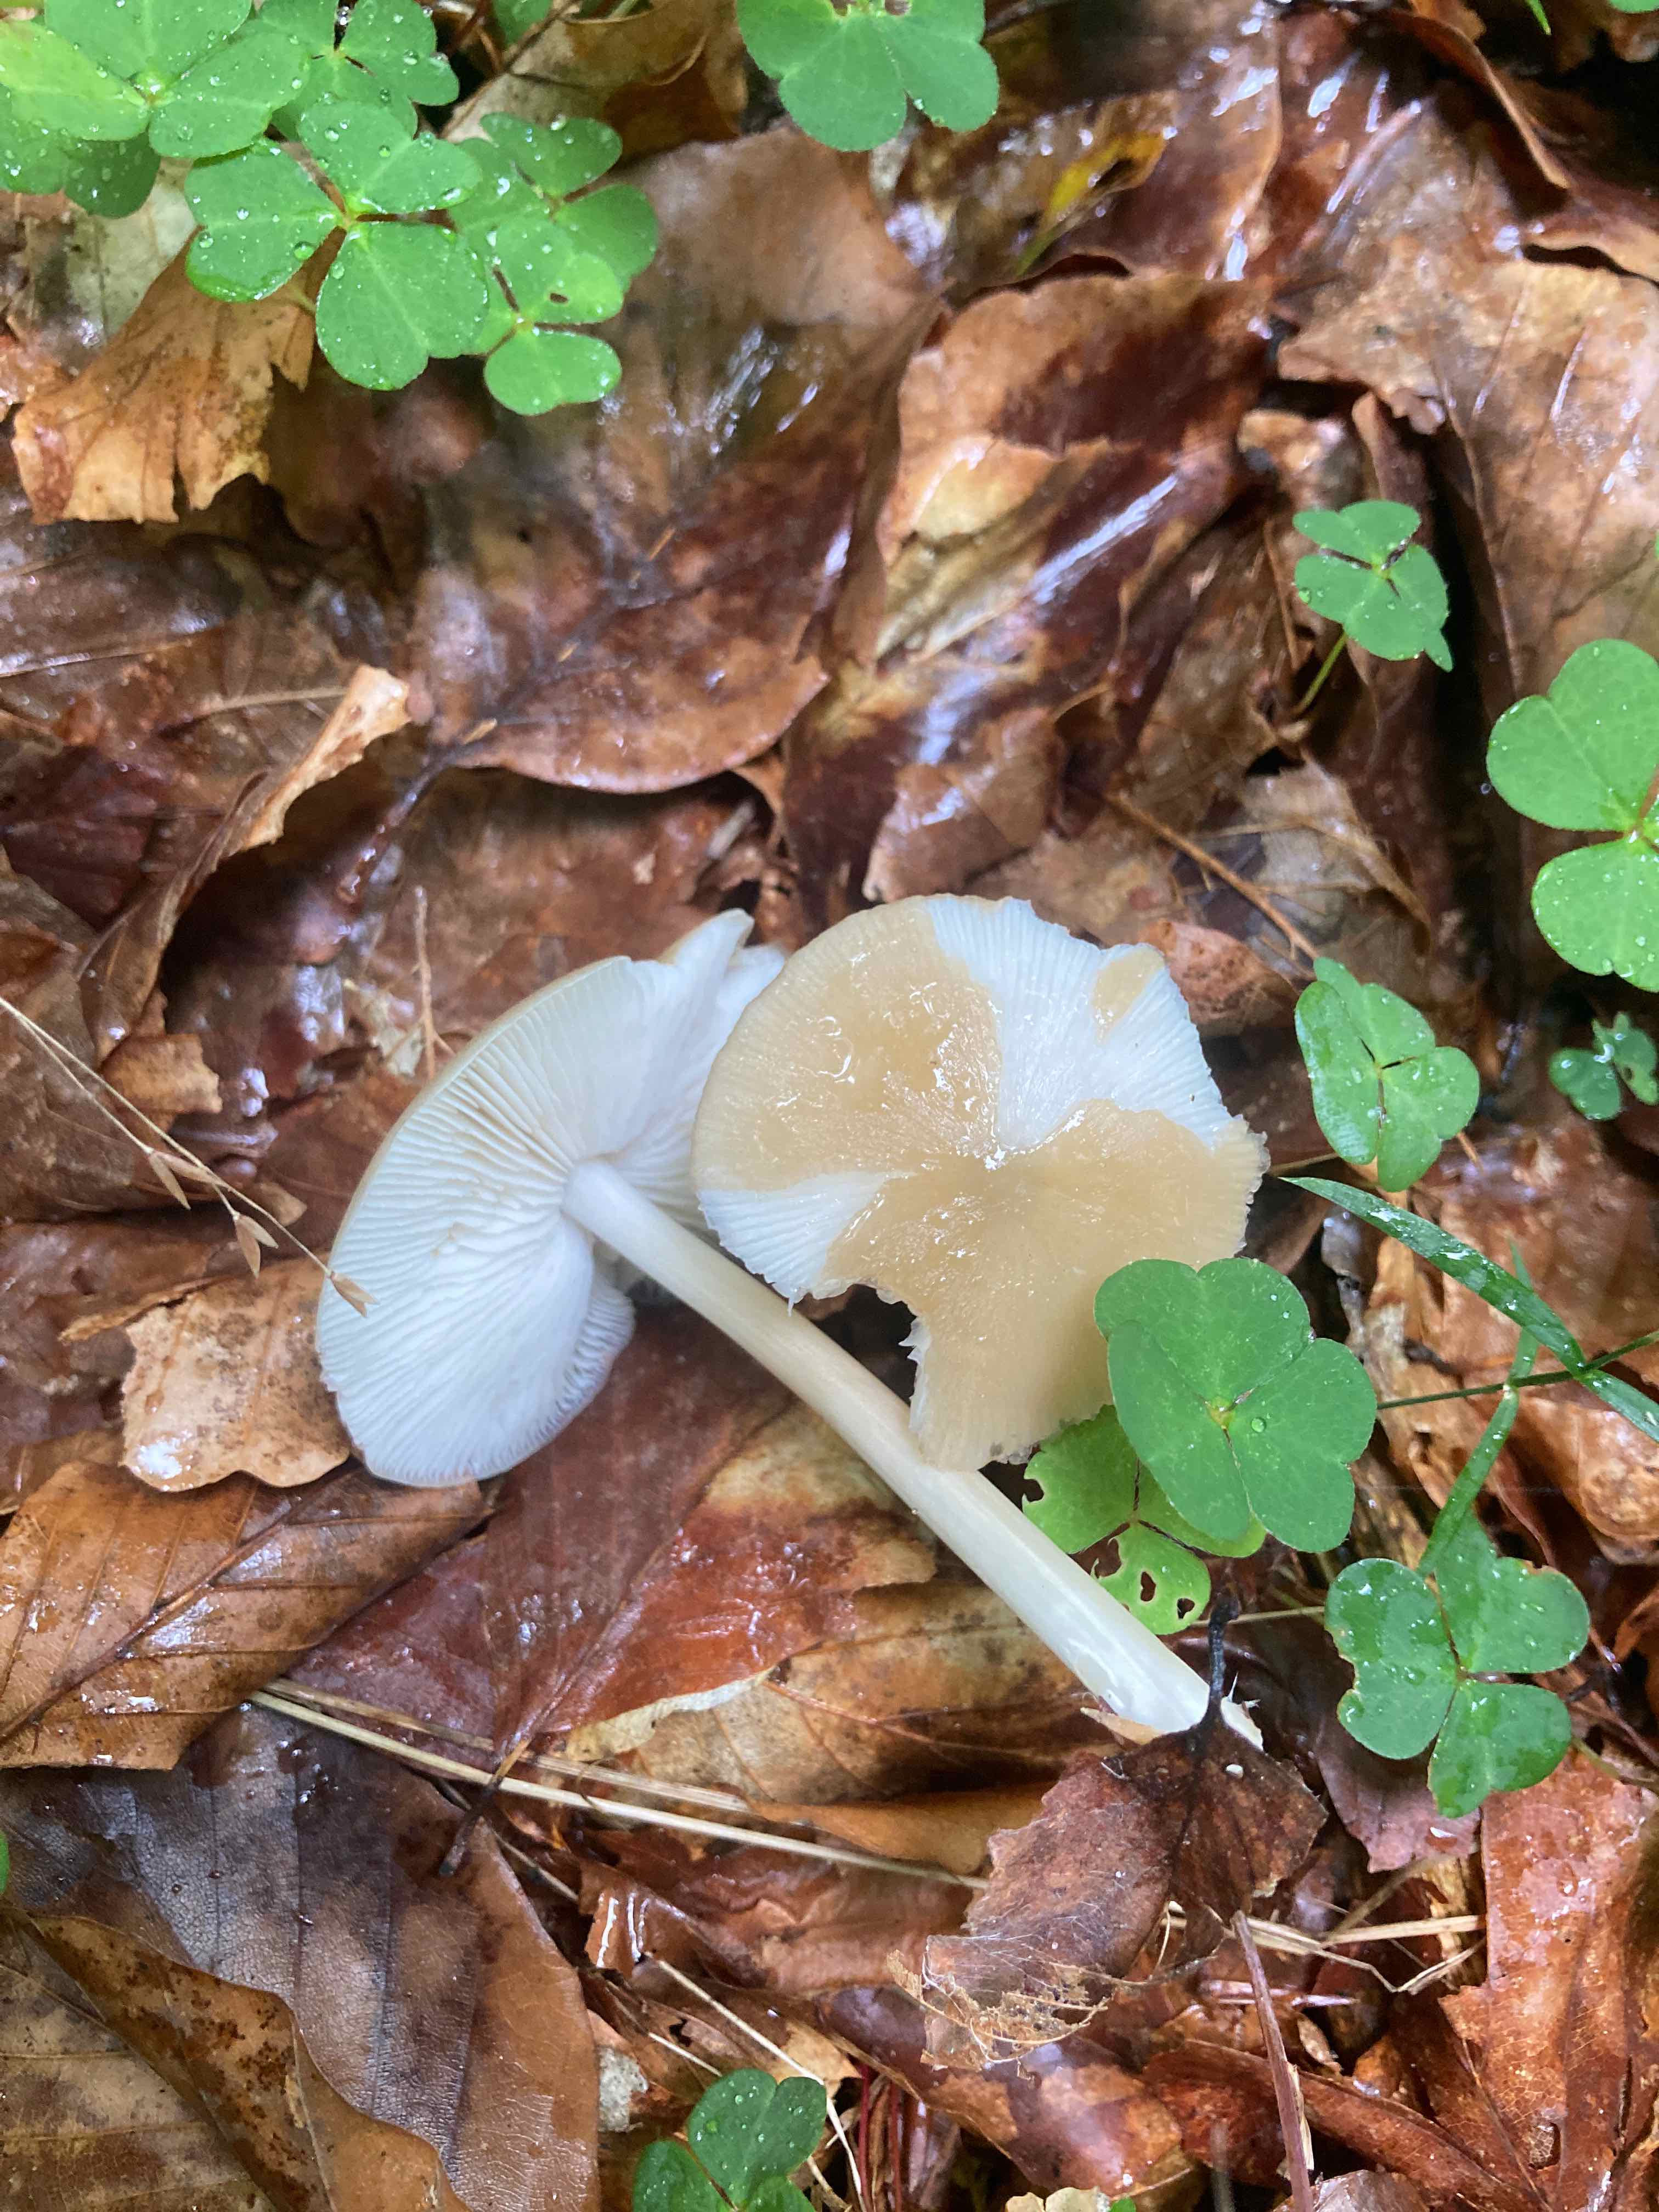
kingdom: Fungi
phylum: Basidiomycota
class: Agaricomycetes
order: Agaricales
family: Porotheleaceae
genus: Hydropodia
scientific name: Hydropodia subalpina
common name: vår-fnugfod
